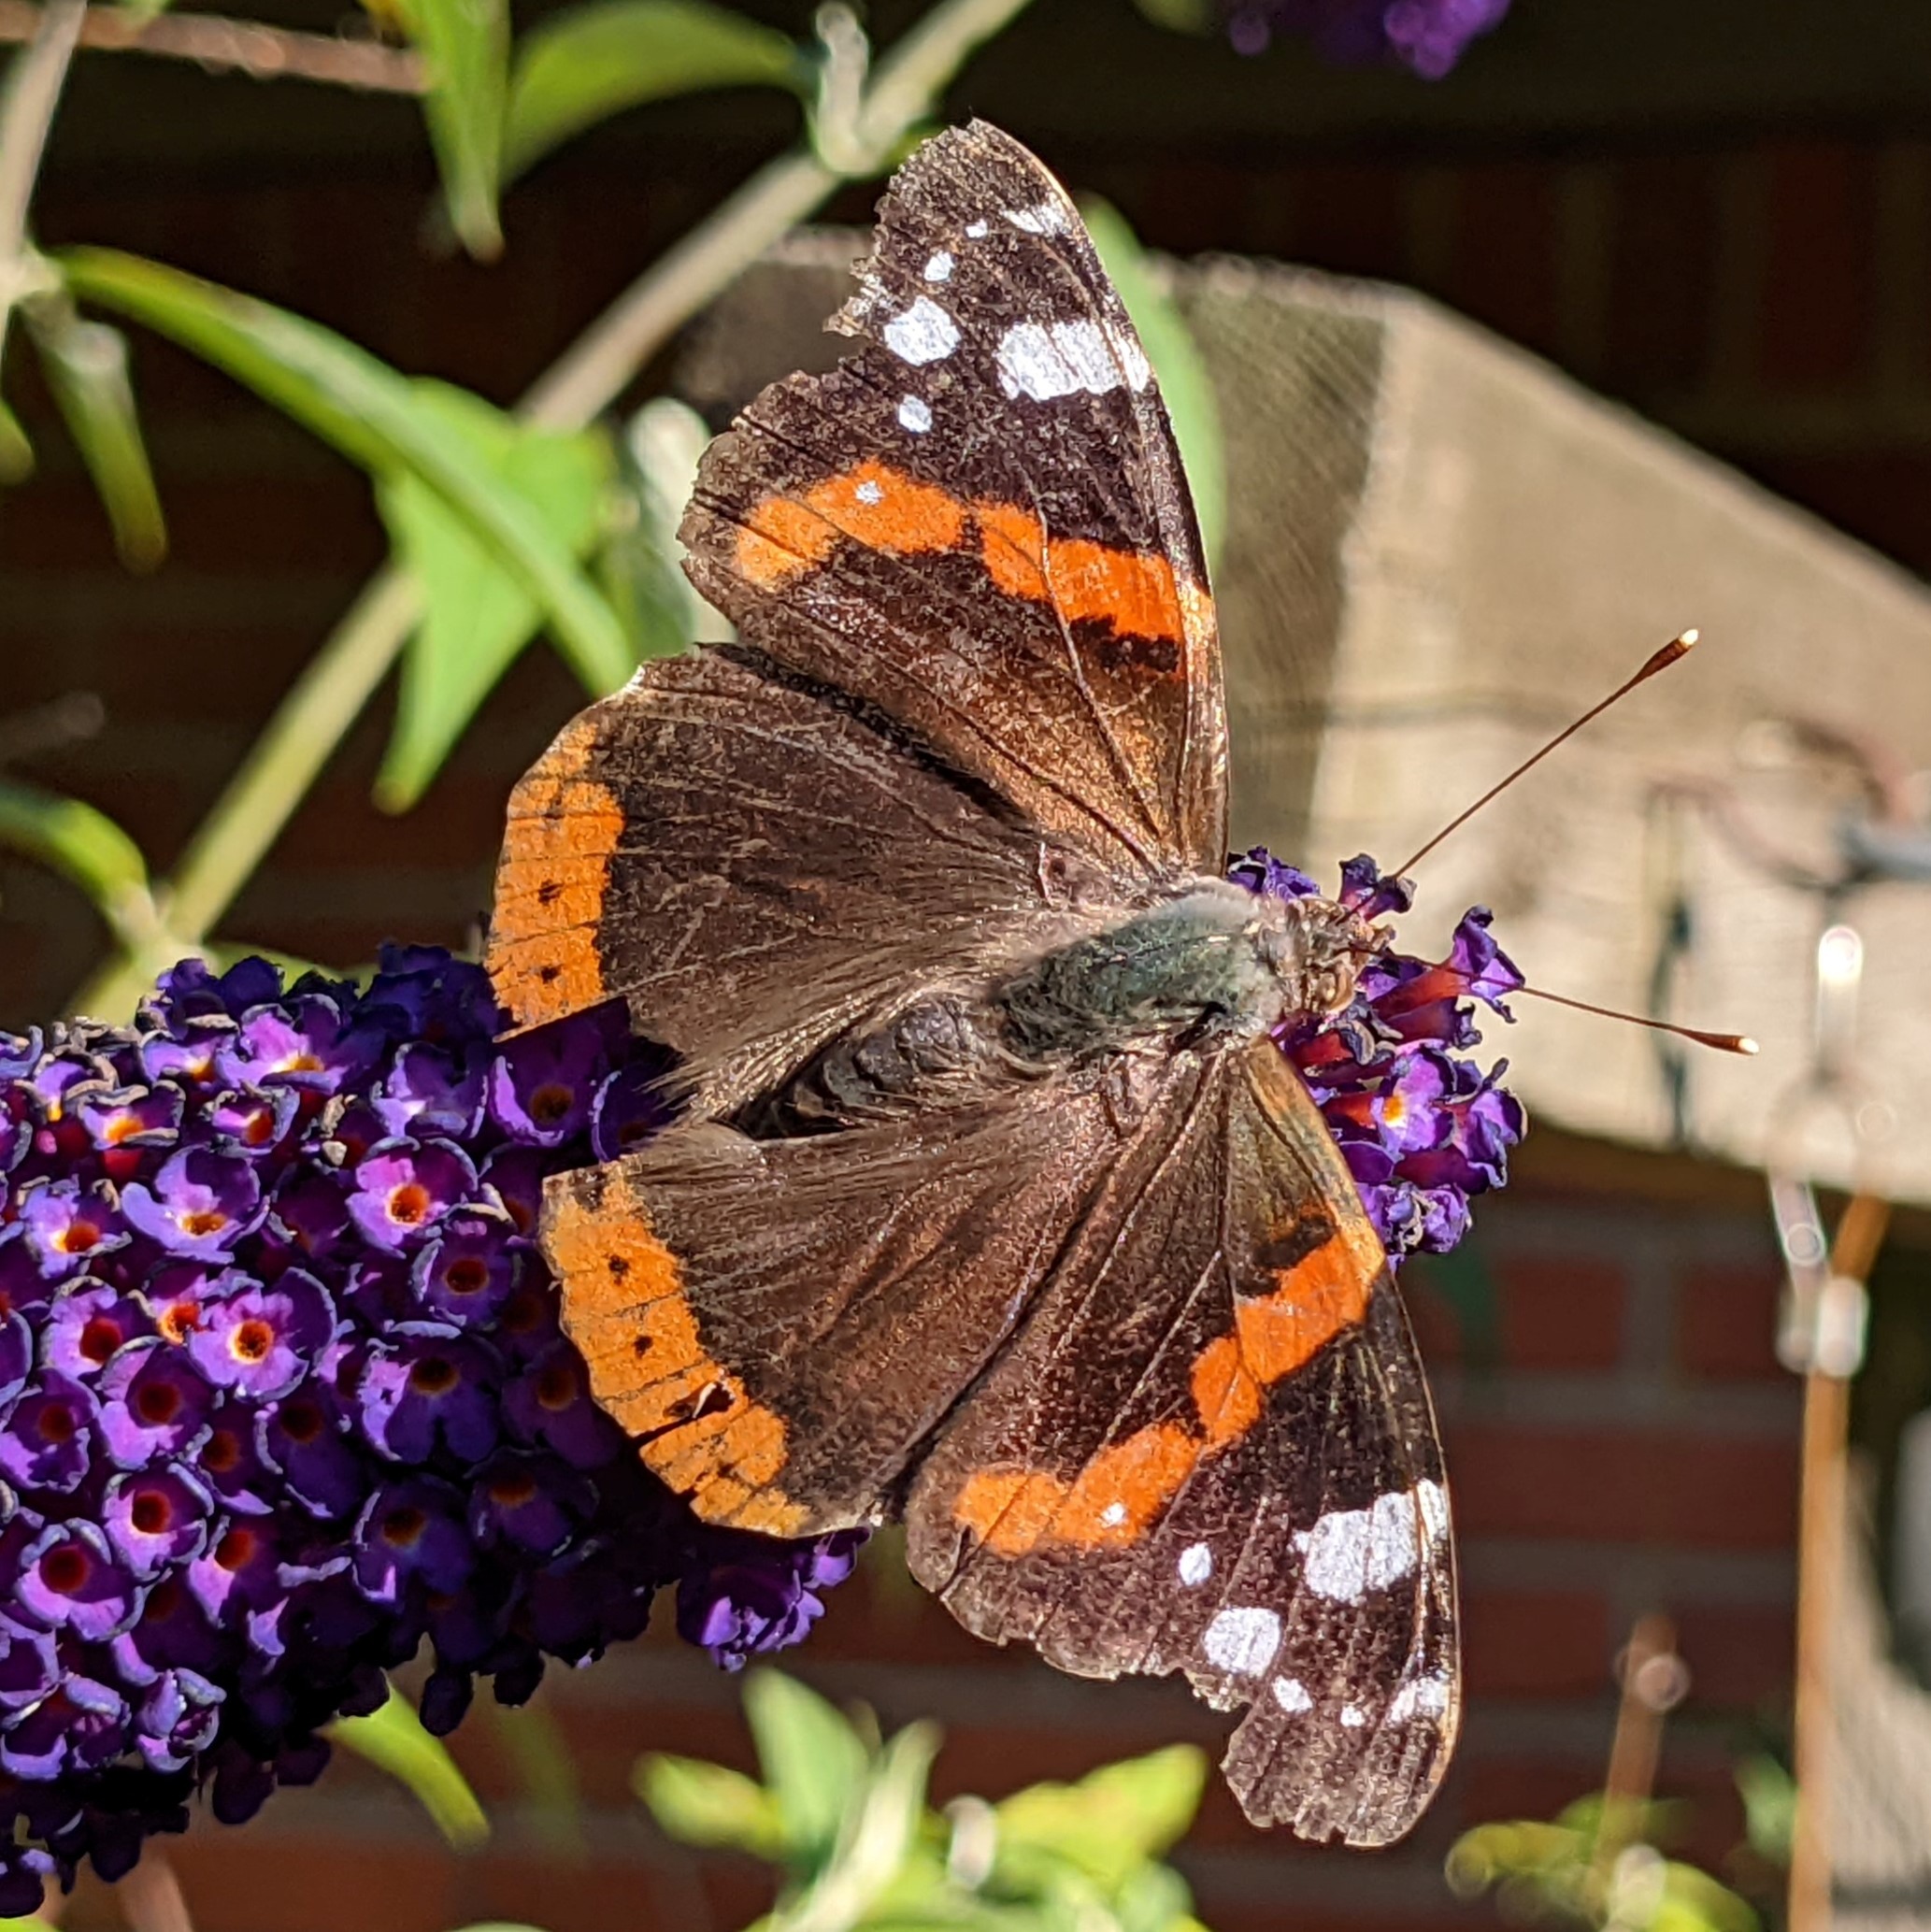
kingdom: Animalia
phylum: Arthropoda
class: Insecta
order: Lepidoptera
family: Nymphalidae
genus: Vanessa
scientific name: Vanessa atalanta
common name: Admiral
